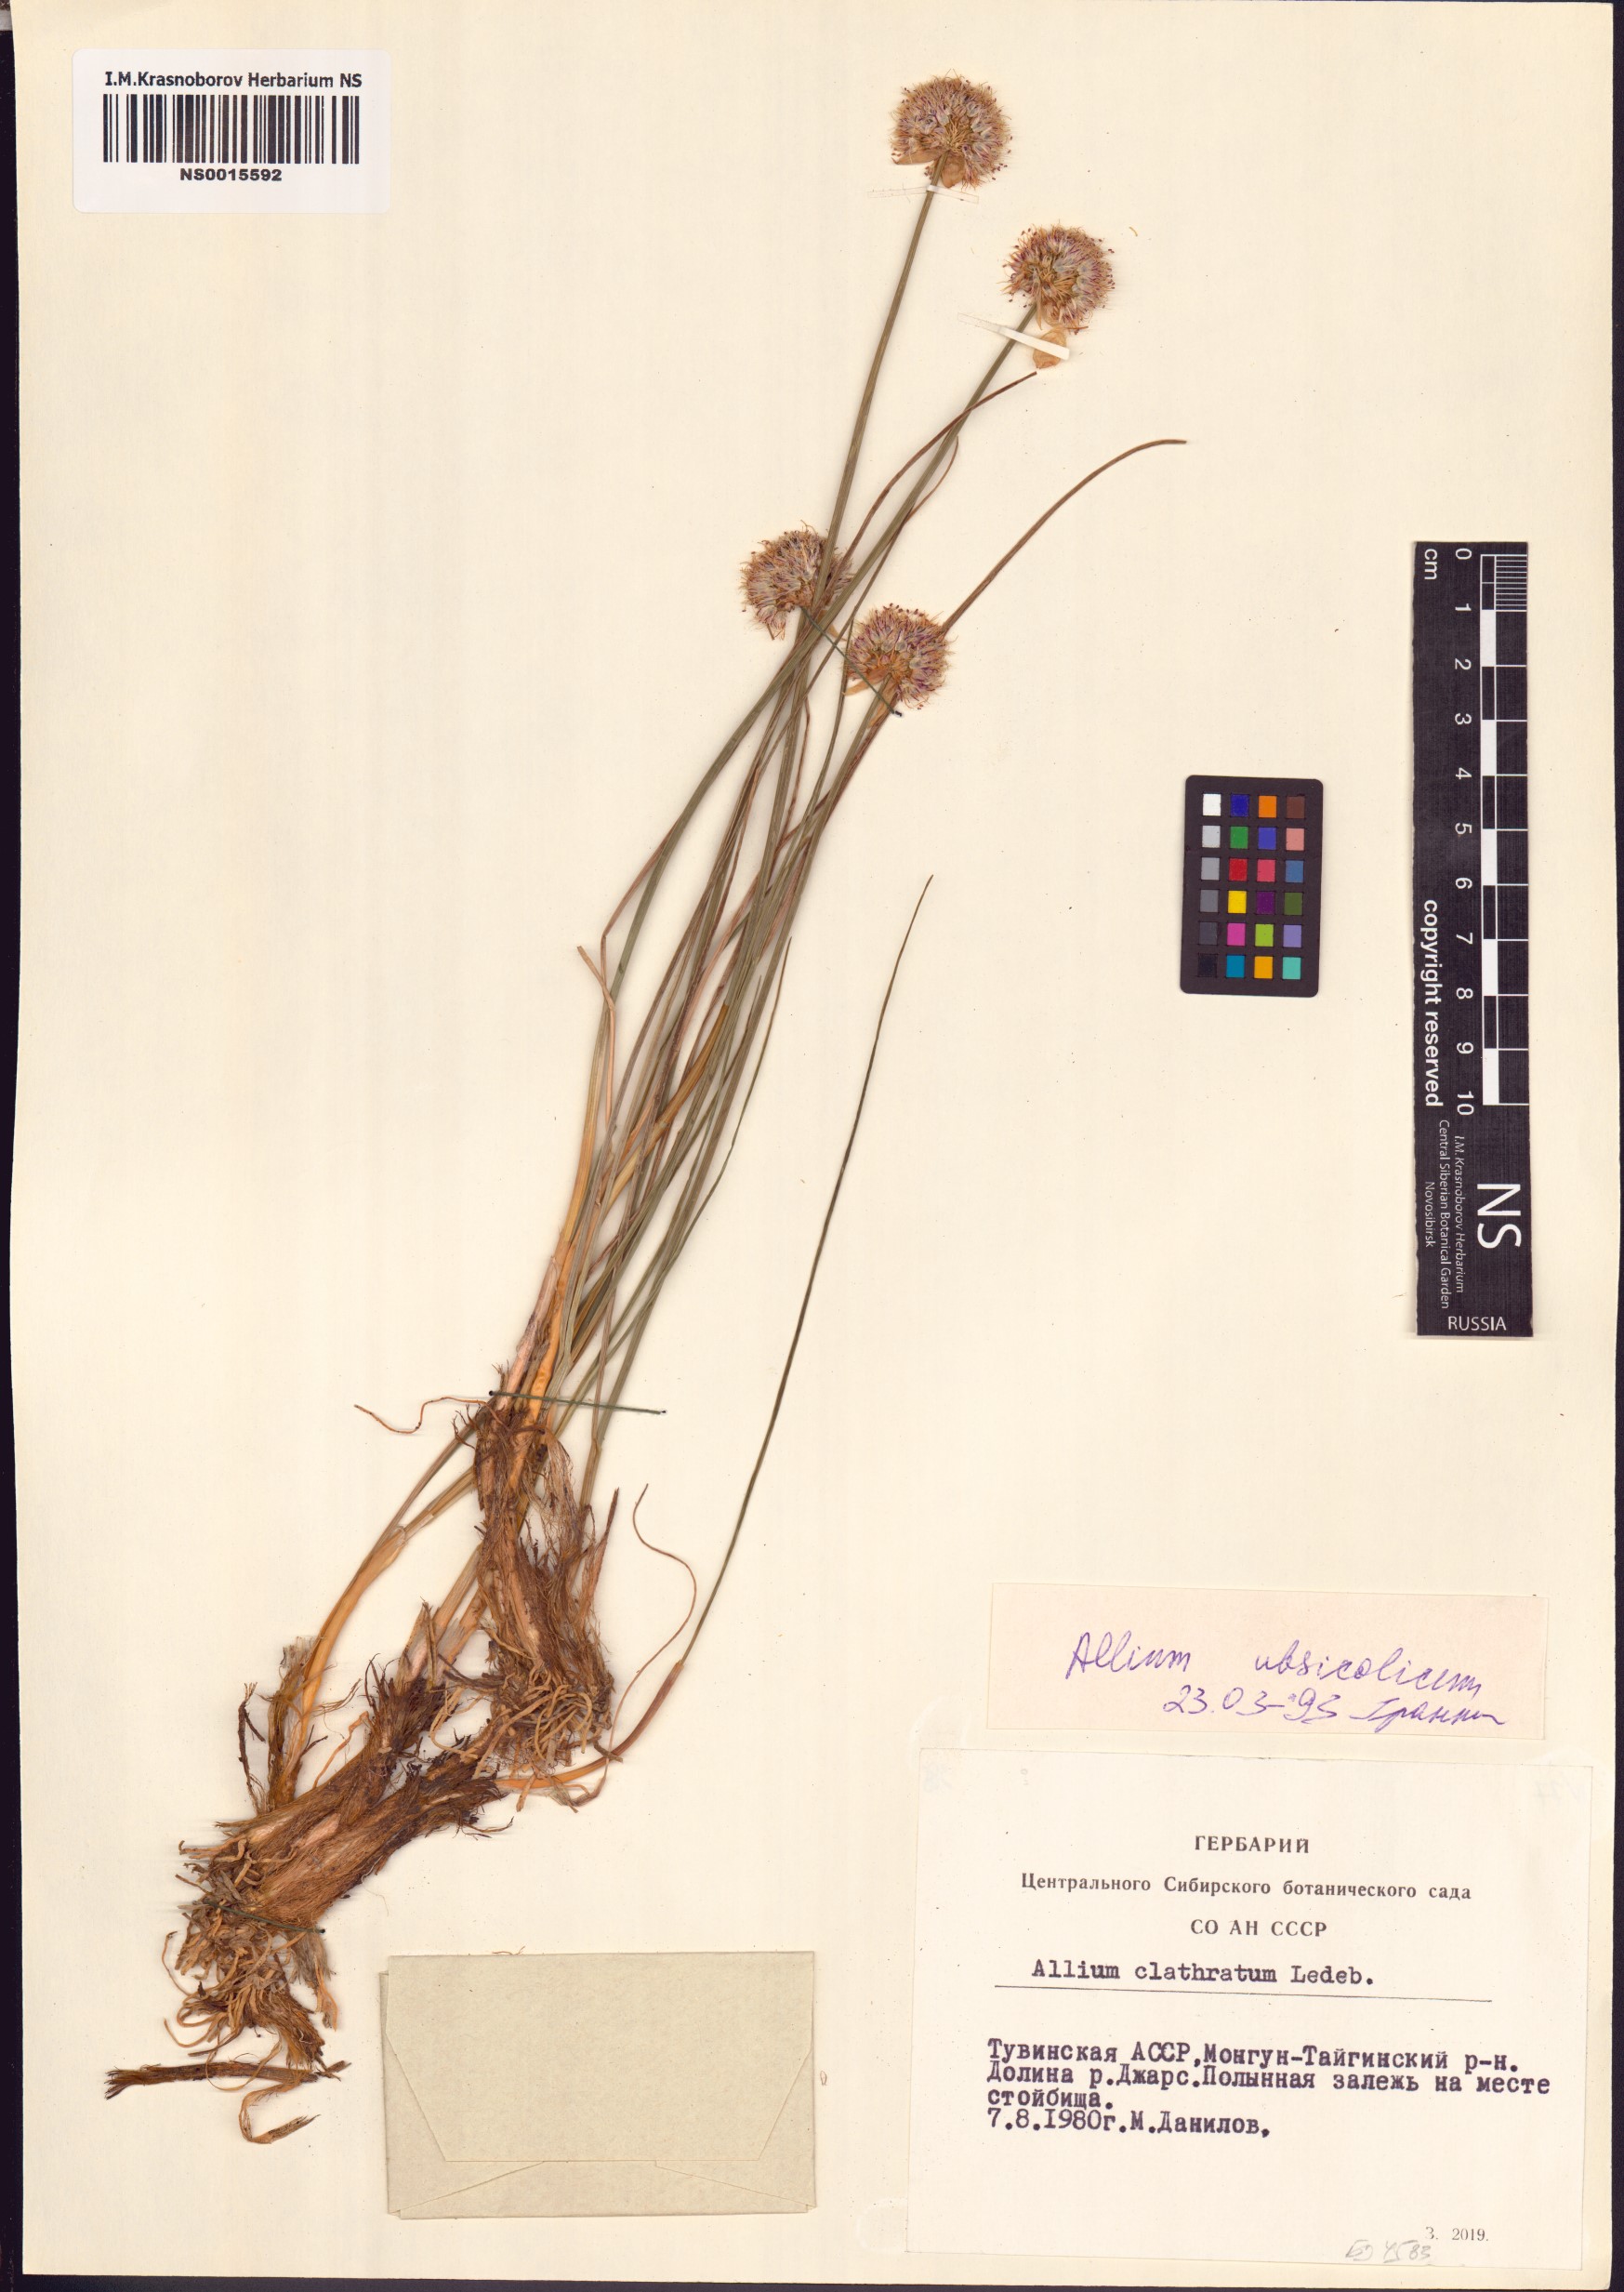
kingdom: Plantae
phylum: Tracheophyta
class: Liliopsida
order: Asparagales
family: Amaryllidaceae
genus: Allium
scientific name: Allium ubsicola
